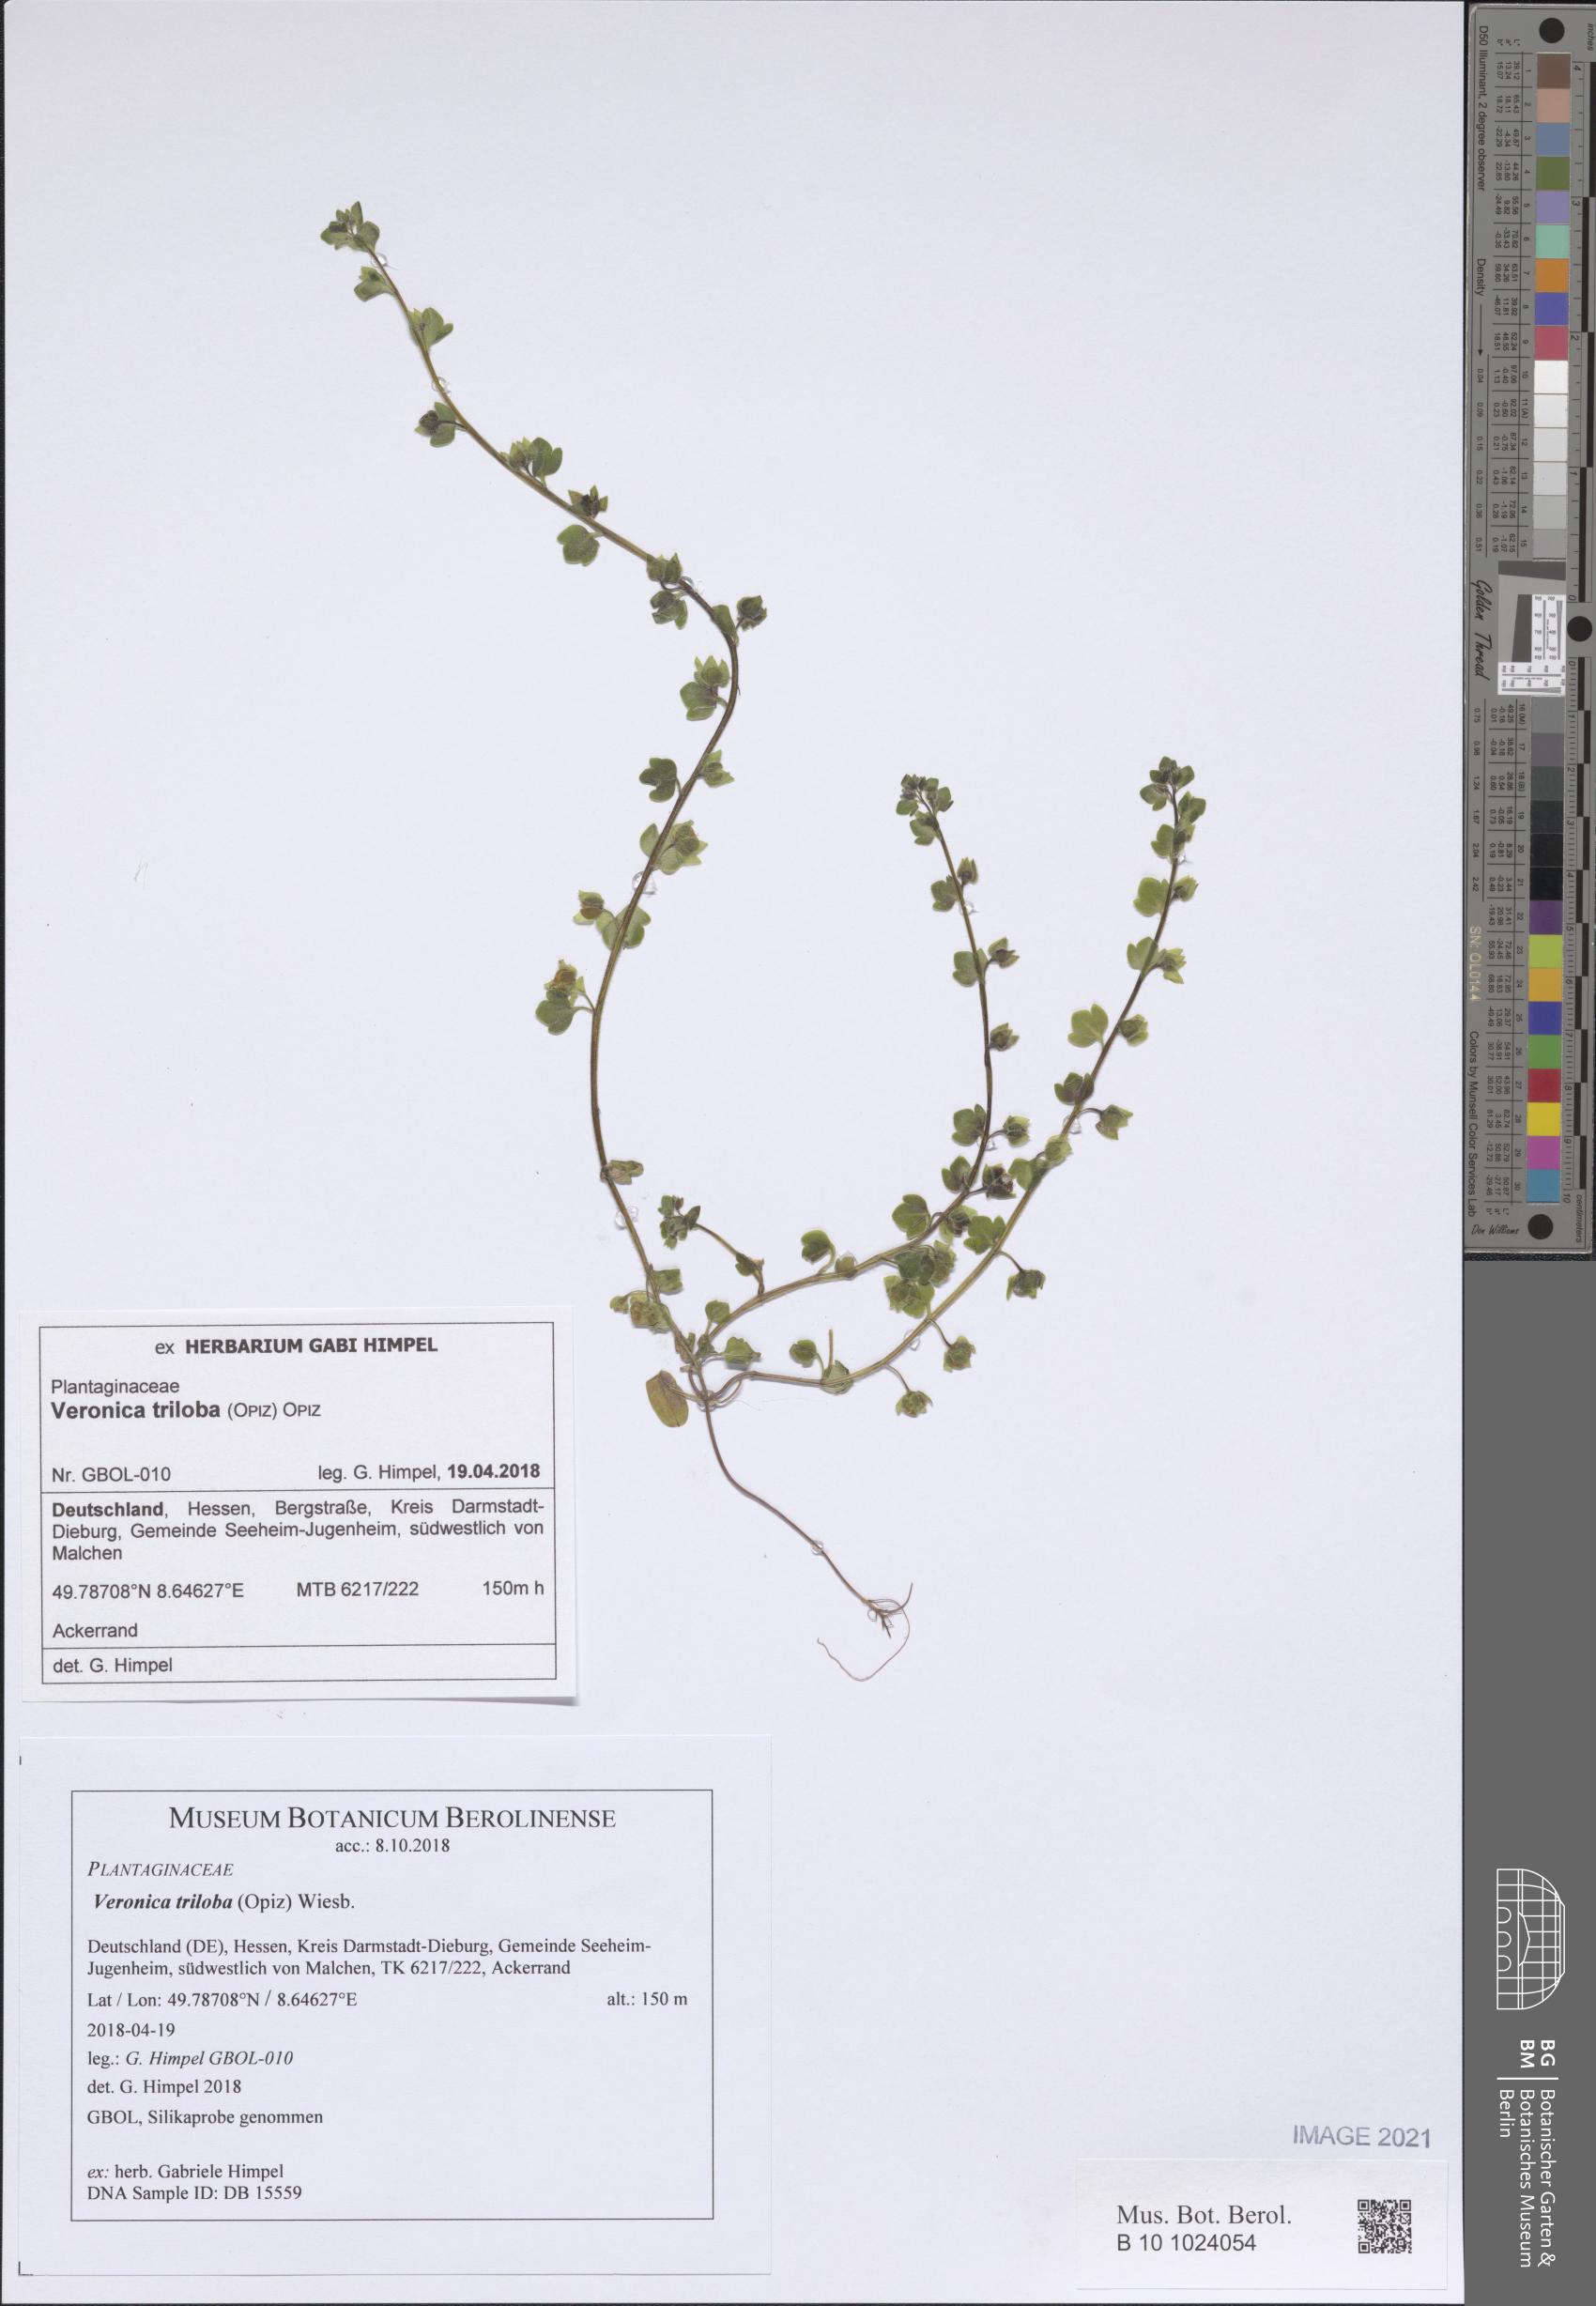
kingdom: Plantae
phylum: Tracheophyta
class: Magnoliopsida
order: Lamiales
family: Plantaginaceae
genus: Veronica
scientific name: Veronica
